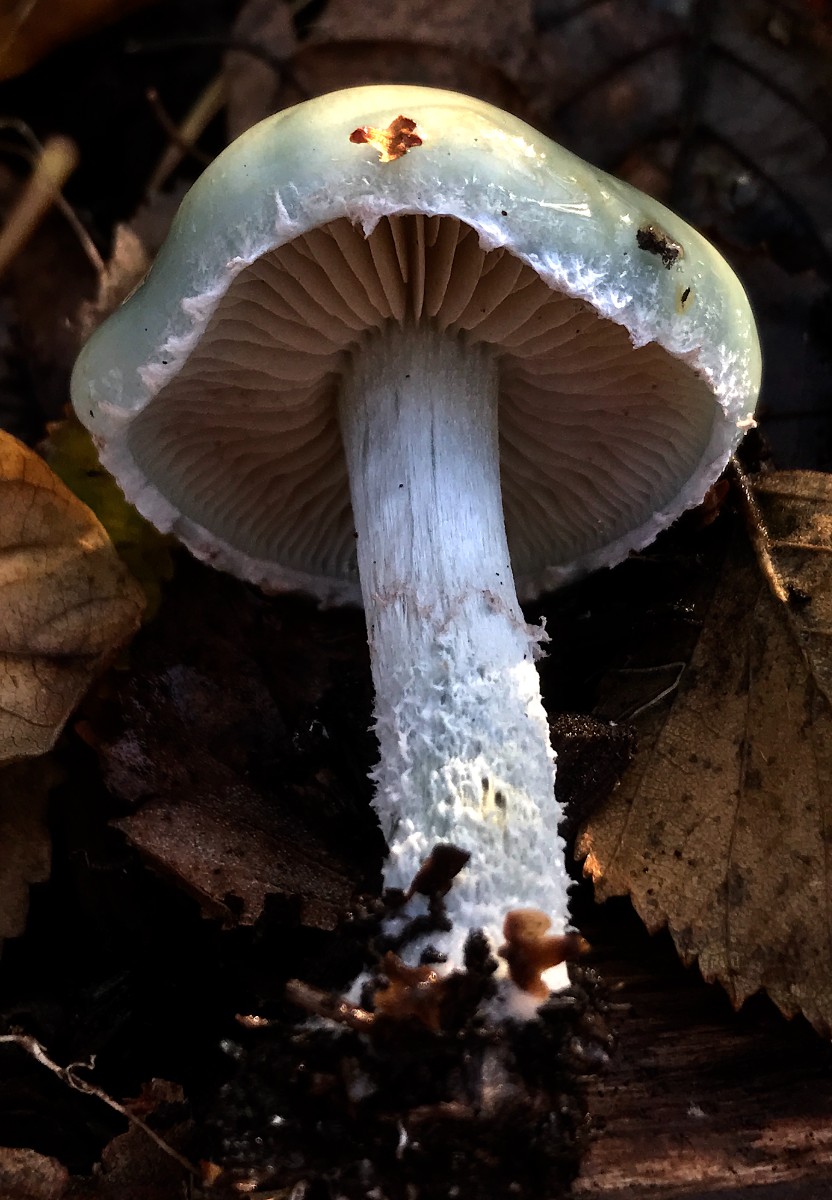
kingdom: Fungi
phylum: Basidiomycota
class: Agaricomycetes
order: Agaricales
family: Strophariaceae
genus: Stropharia
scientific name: Stropharia cyanea
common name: blågrøn bredblad
